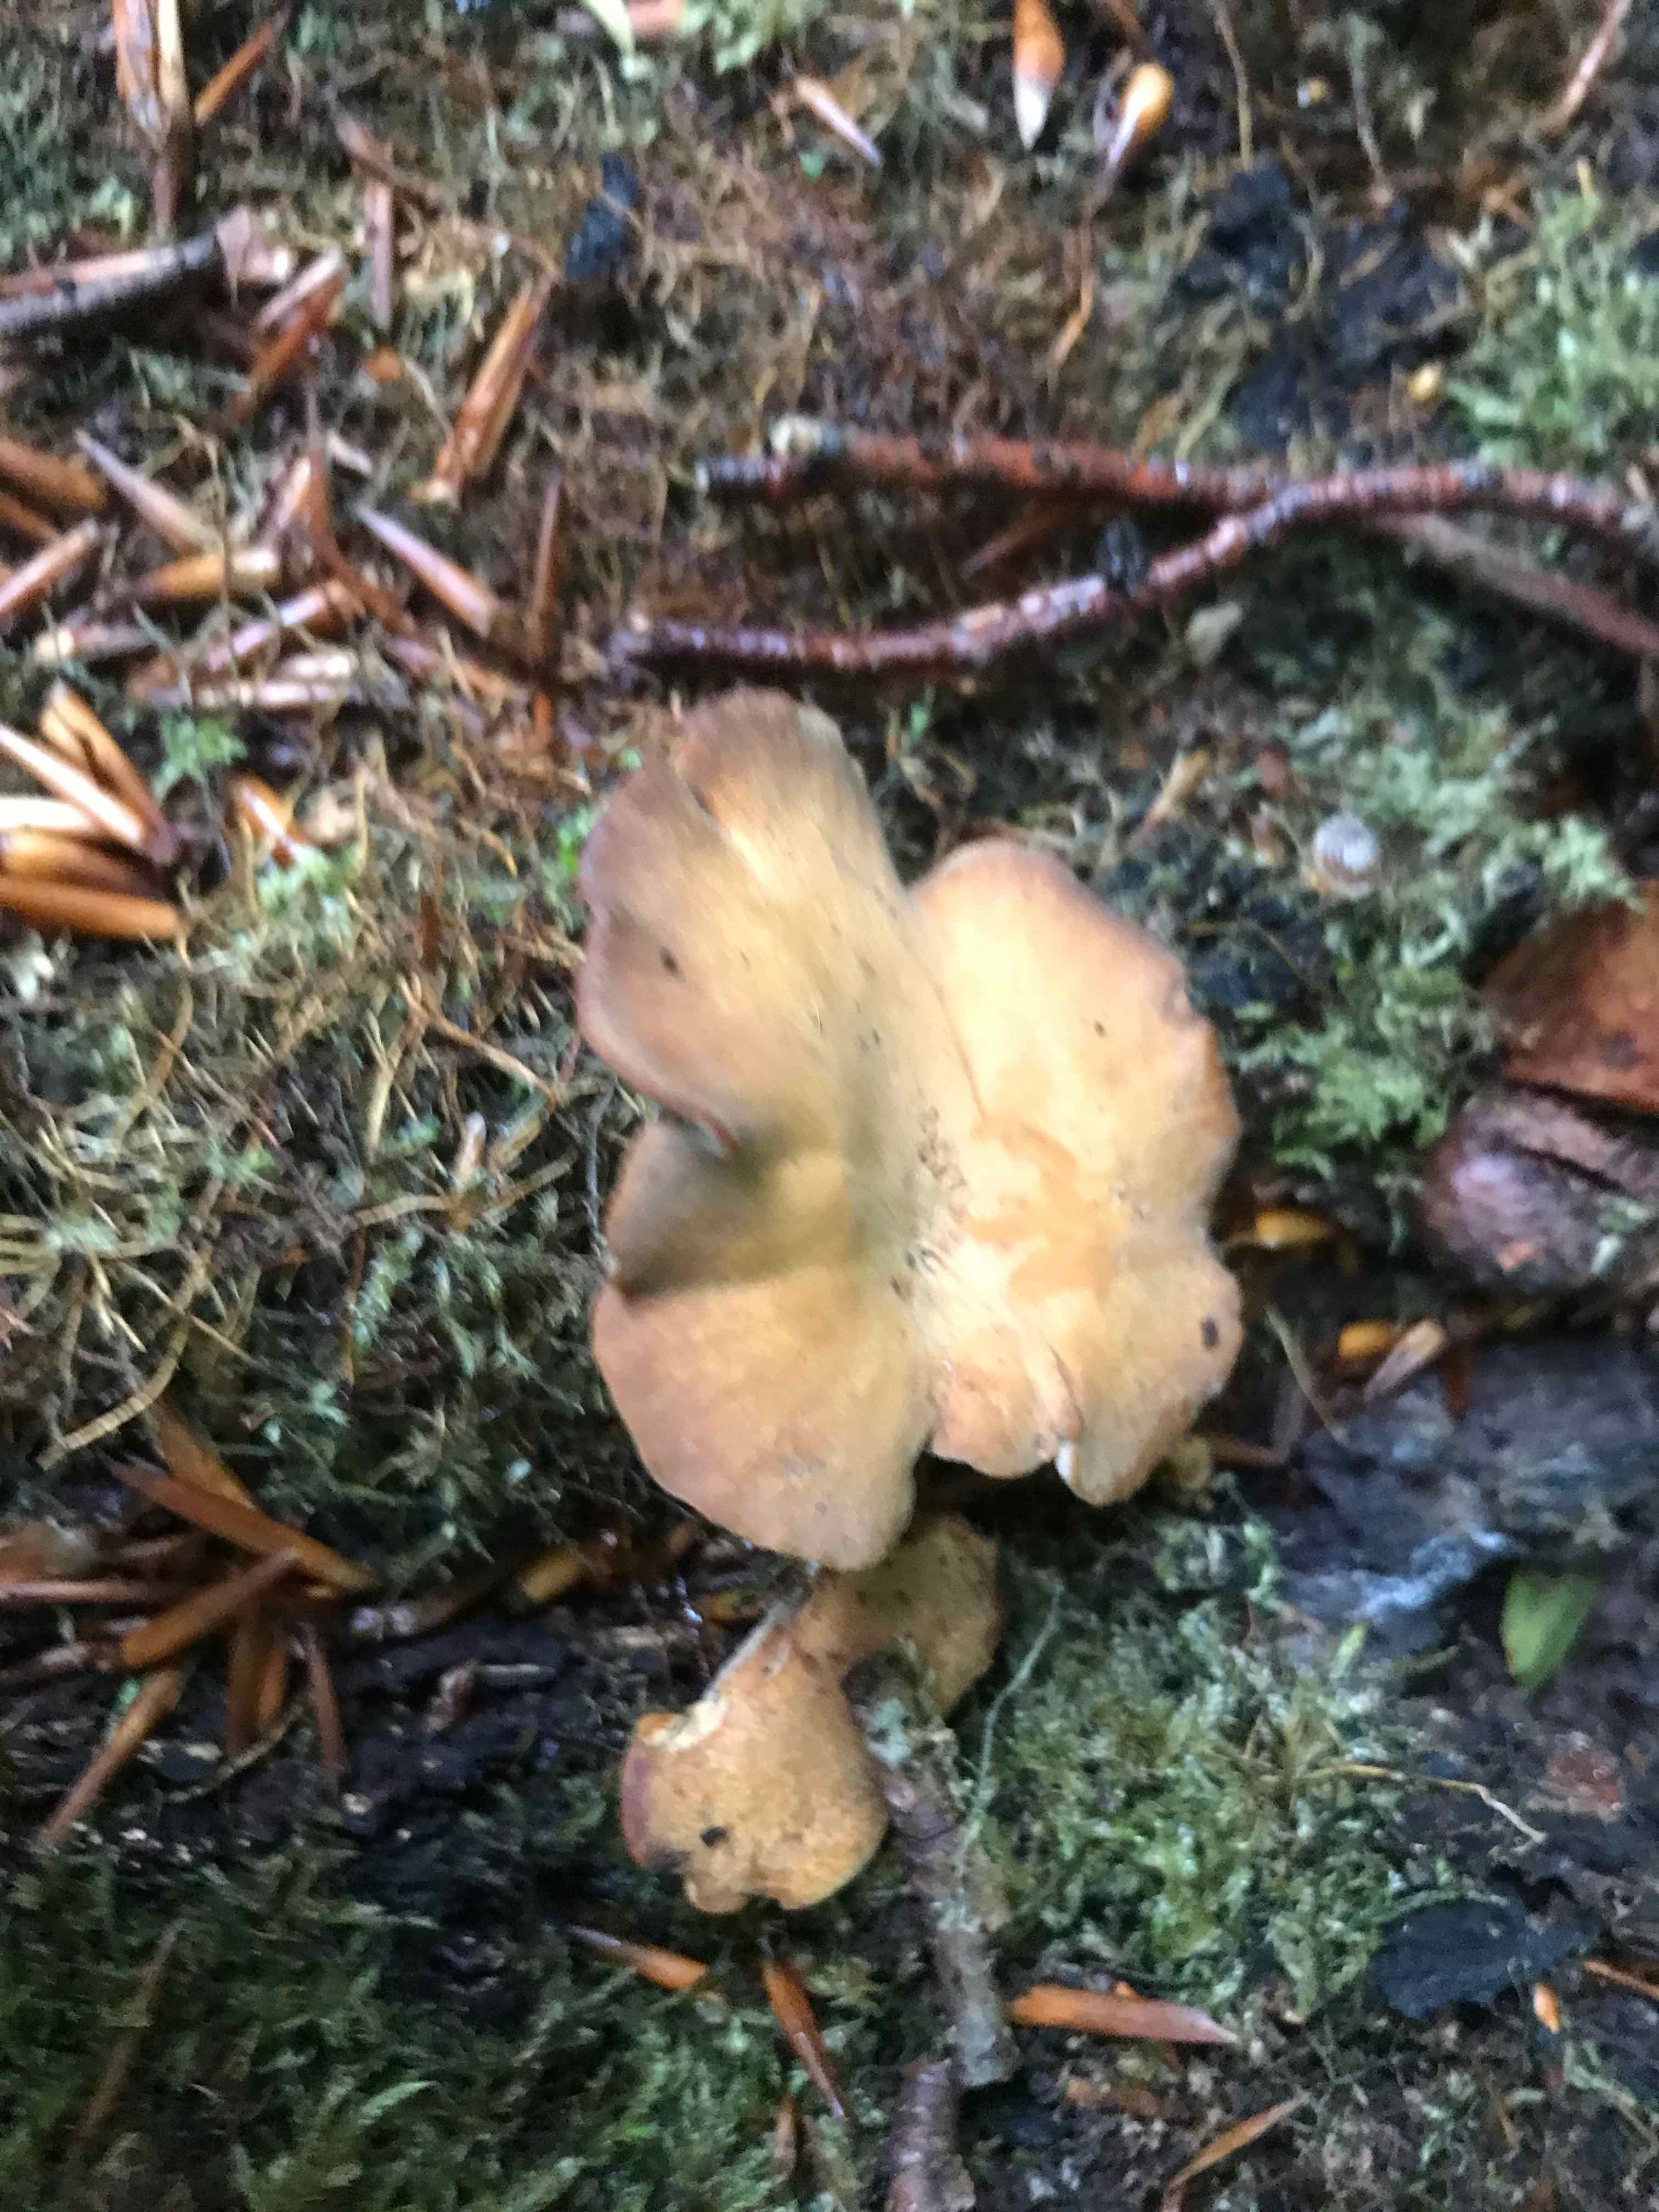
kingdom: Fungi
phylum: Basidiomycota
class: Agaricomycetes
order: Polyporales
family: Polyporaceae
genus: Cerioporus
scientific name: Cerioporus varius
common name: foranderlig stilkporesvamp
